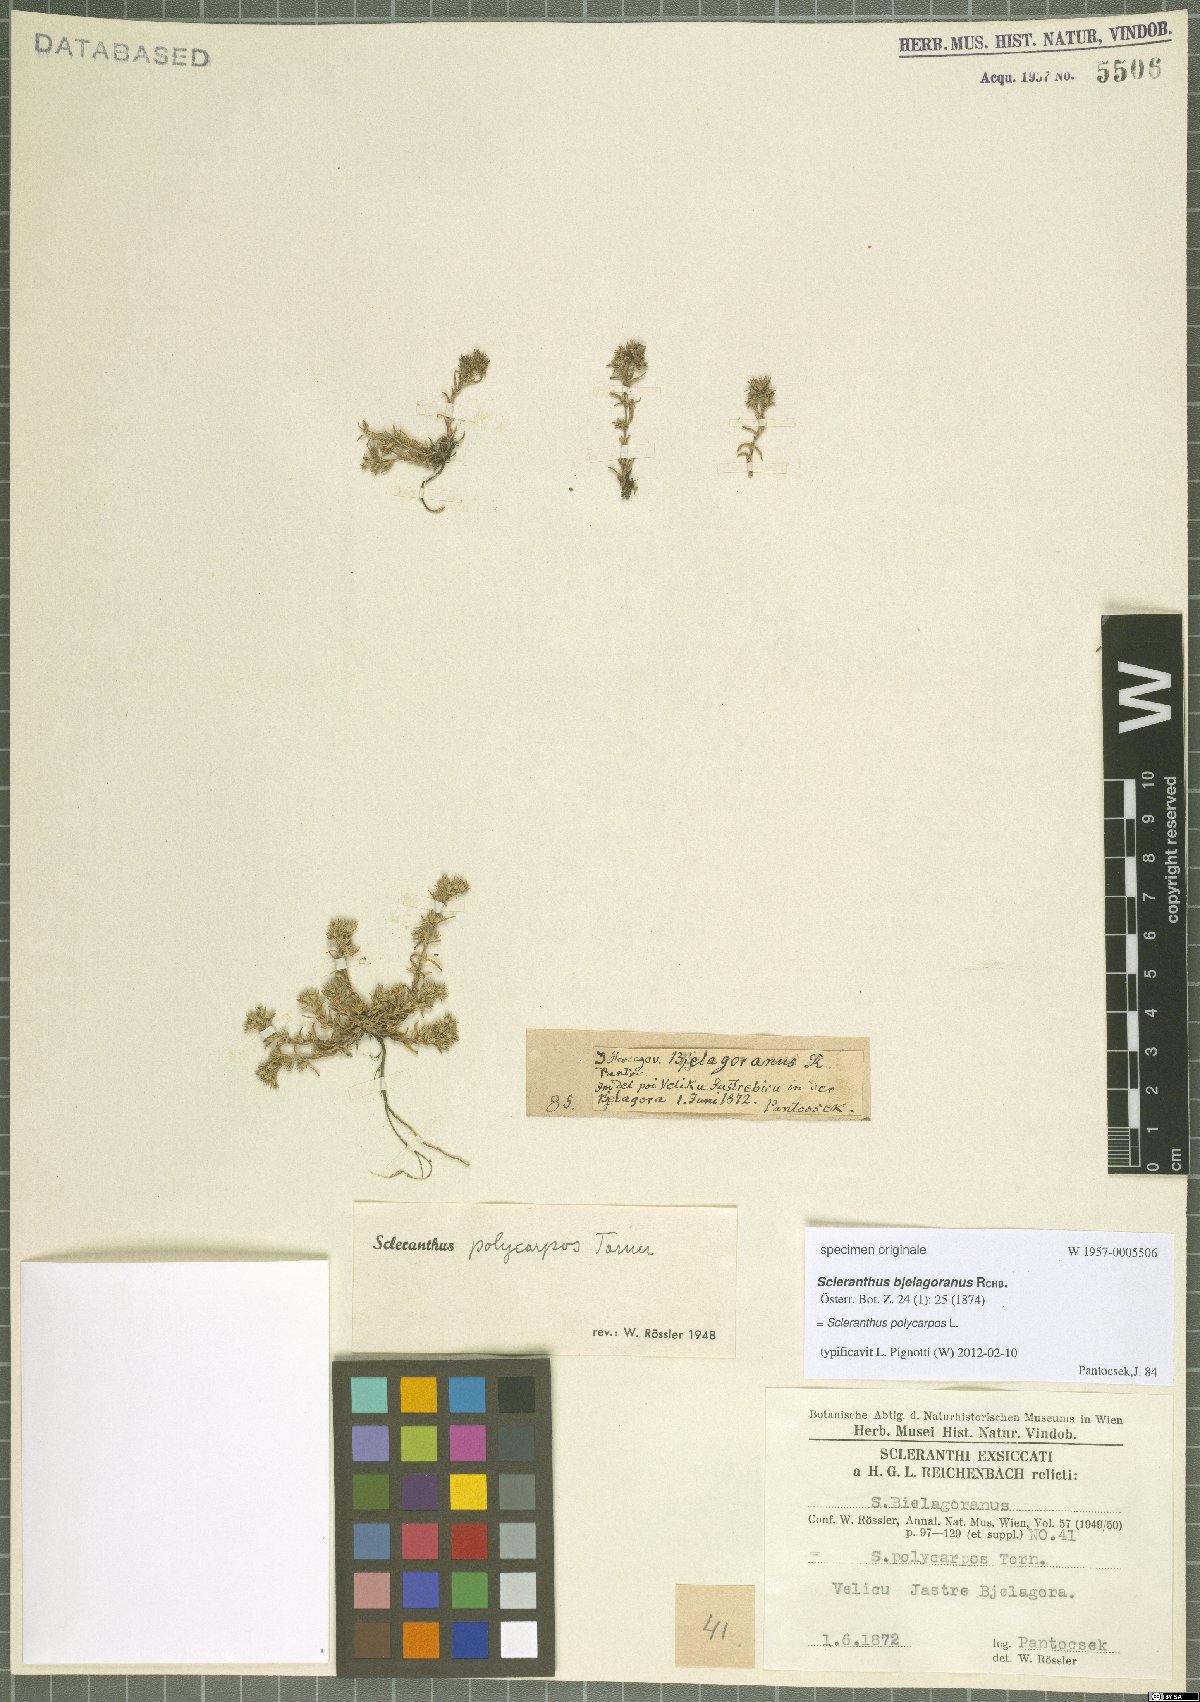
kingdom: Plantae
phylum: Tracheophyta
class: Magnoliopsida
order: Caryophyllales
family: Caryophyllaceae
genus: Scleranthus
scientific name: Scleranthus annuus
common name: Annual knawel
